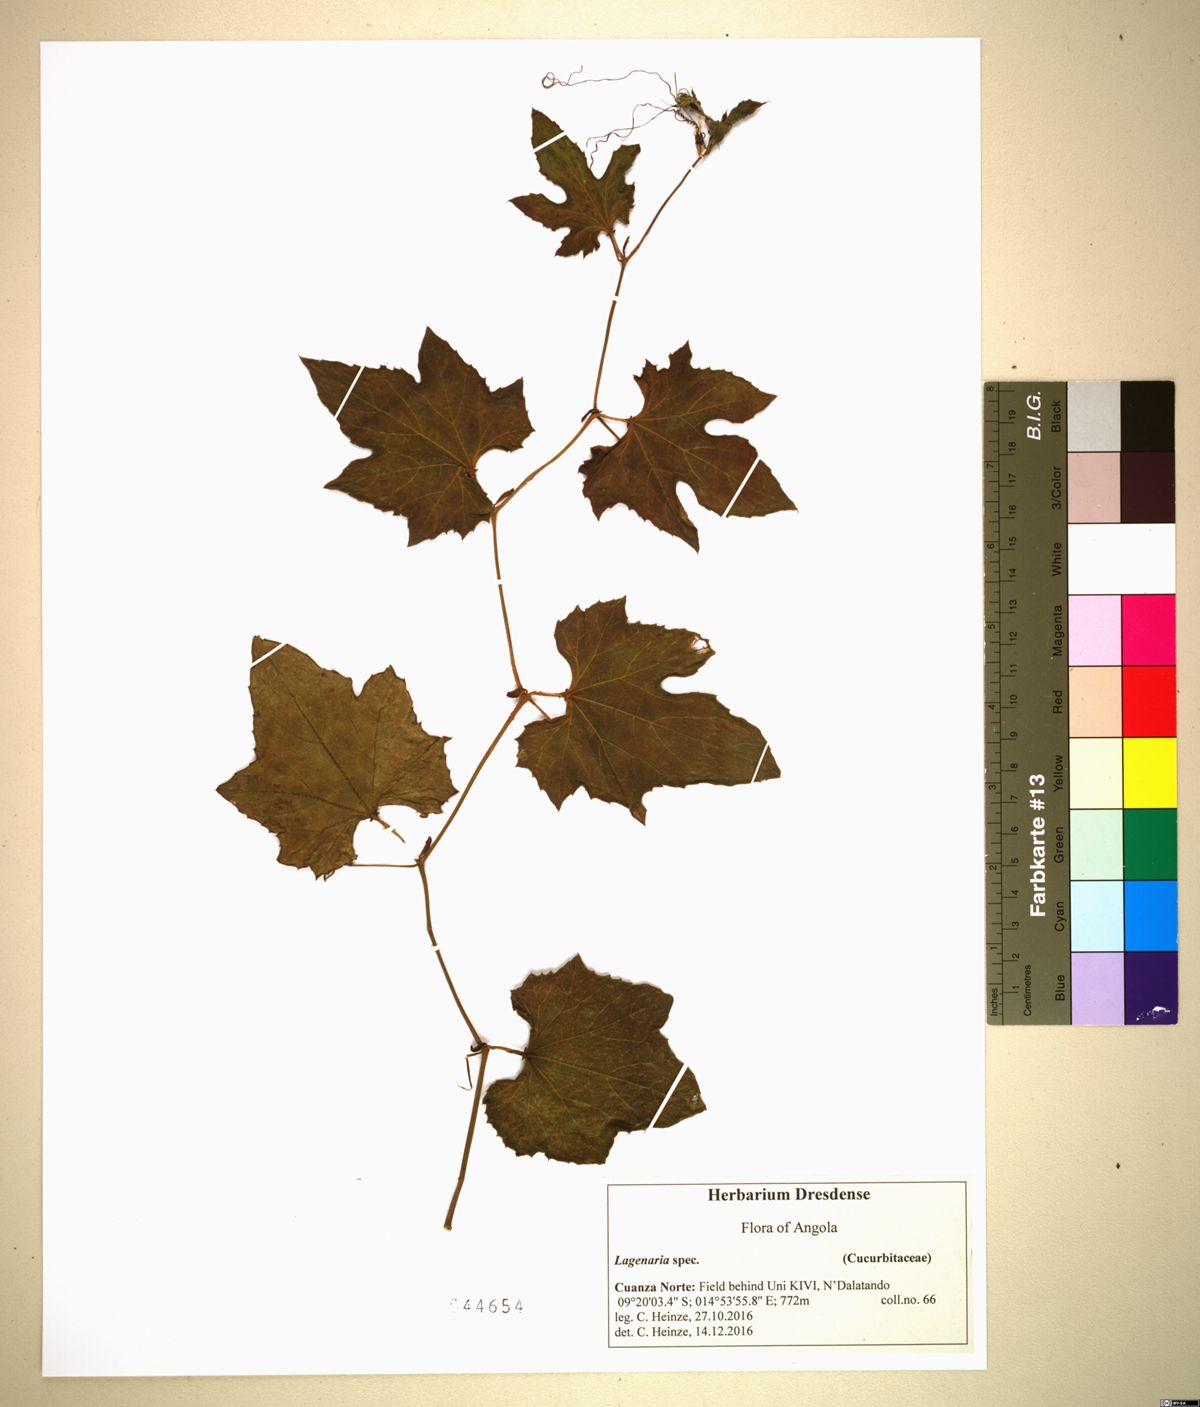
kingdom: Plantae
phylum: Tracheophyta
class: Magnoliopsida
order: Cucurbitales
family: Cucurbitaceae
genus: Lagenaria
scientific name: Lagenaria
